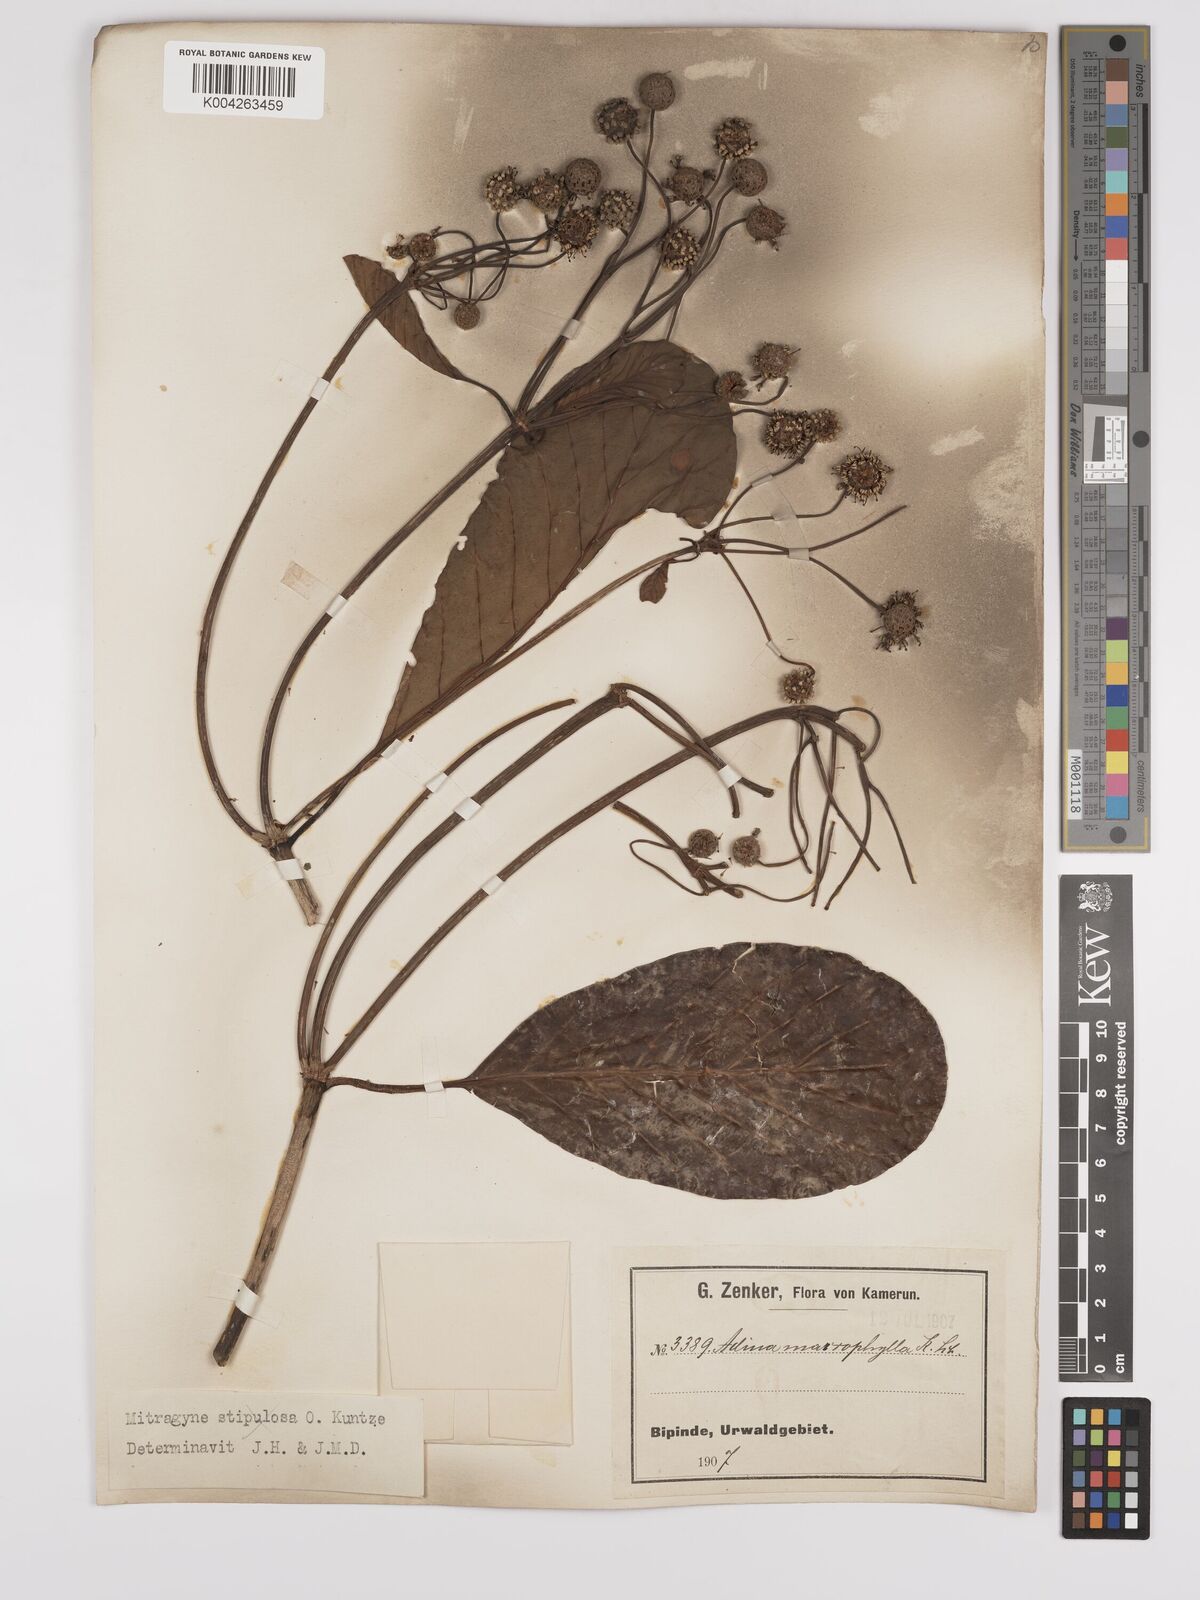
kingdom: Plantae
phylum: Tracheophyta
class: Magnoliopsida
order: Gentianales
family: Rubiaceae
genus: Mitragyna
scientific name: Mitragyna stipulosa
